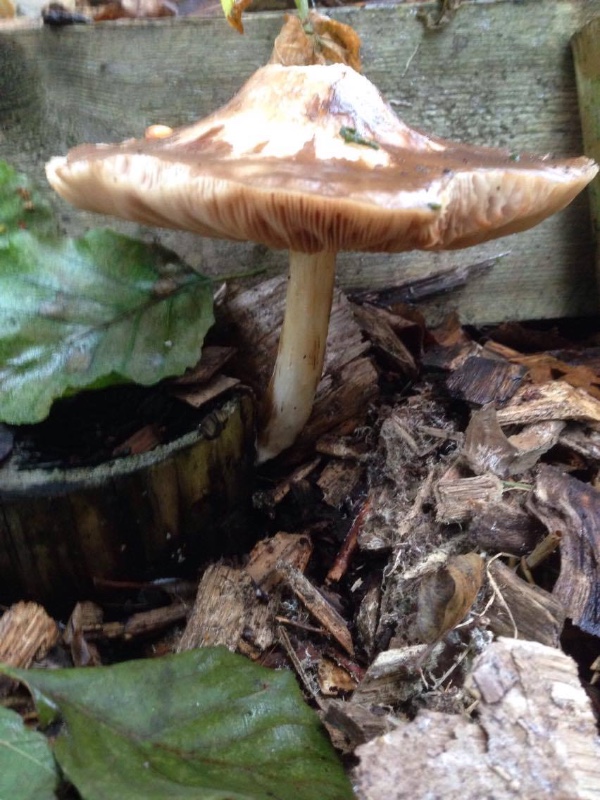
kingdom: Fungi
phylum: Basidiomycota
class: Agaricomycetes
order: Agaricales
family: Pluteaceae
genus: Pluteus
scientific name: Pluteus cervinus
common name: sodfarvet skærmhat
